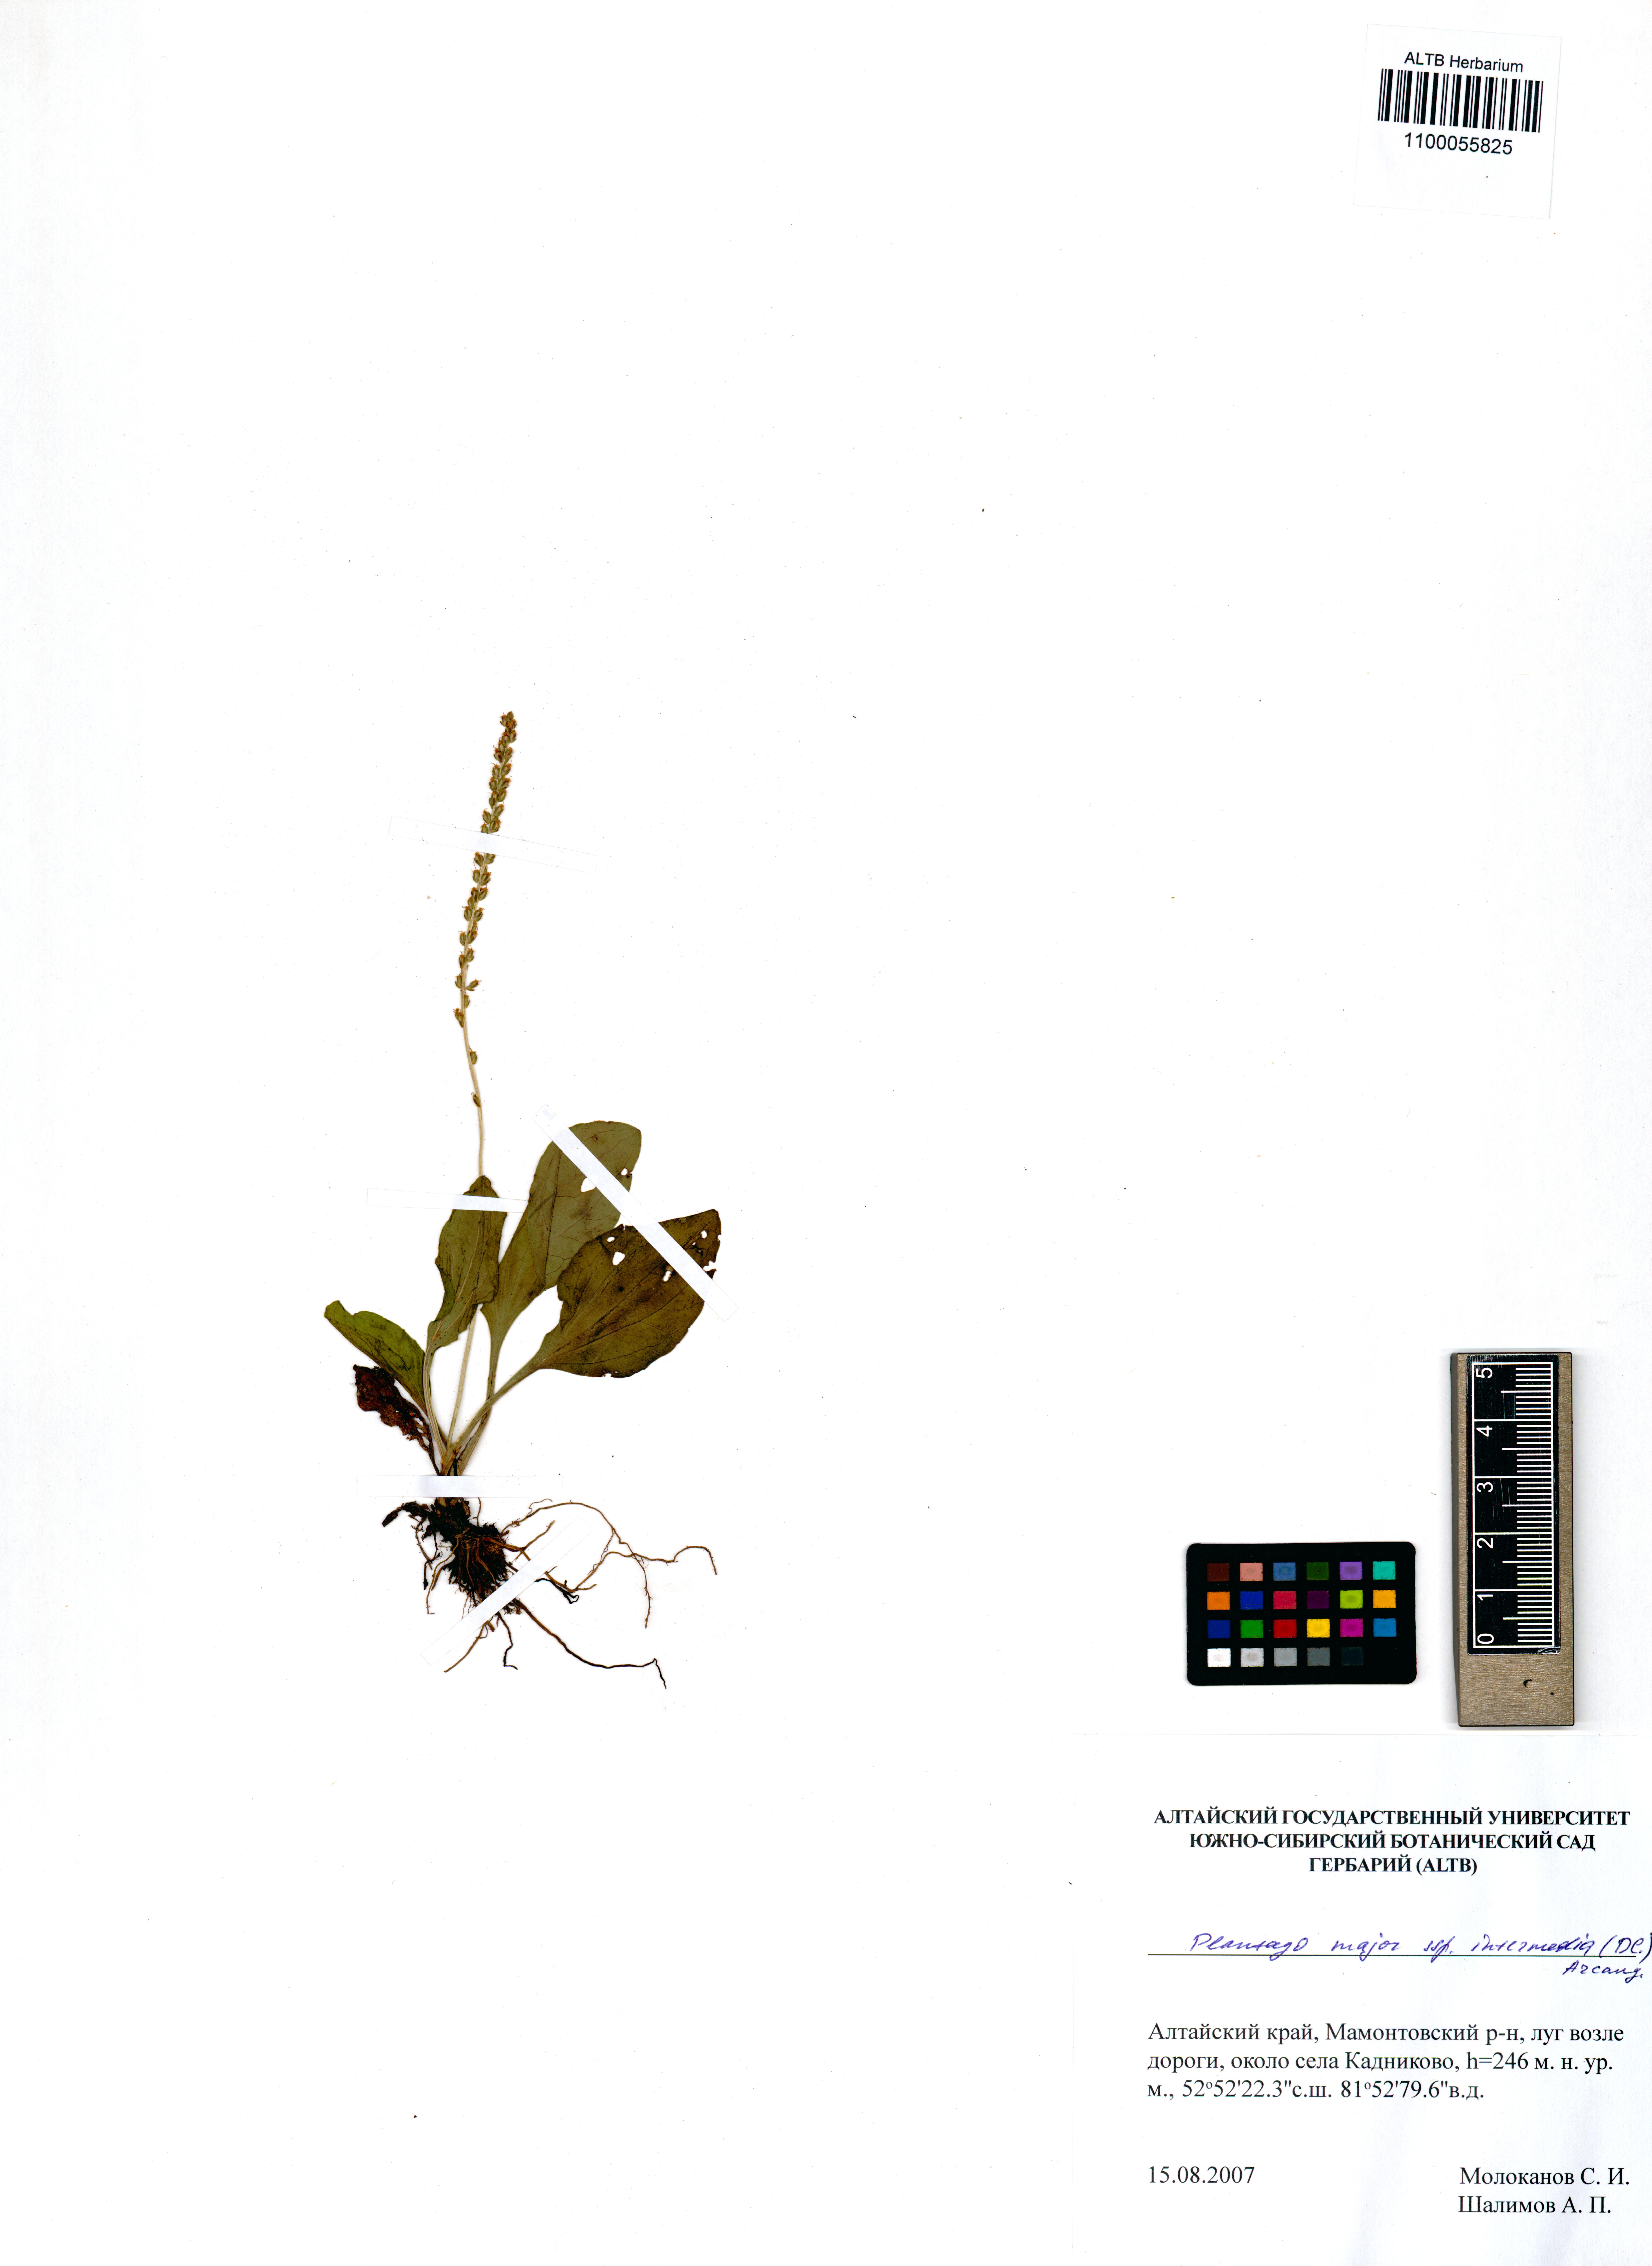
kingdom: Plantae
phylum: Tracheophyta
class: Magnoliopsida
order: Lamiales
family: Plantaginaceae
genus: Plantago
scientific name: Plantago major
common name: Common plantain
